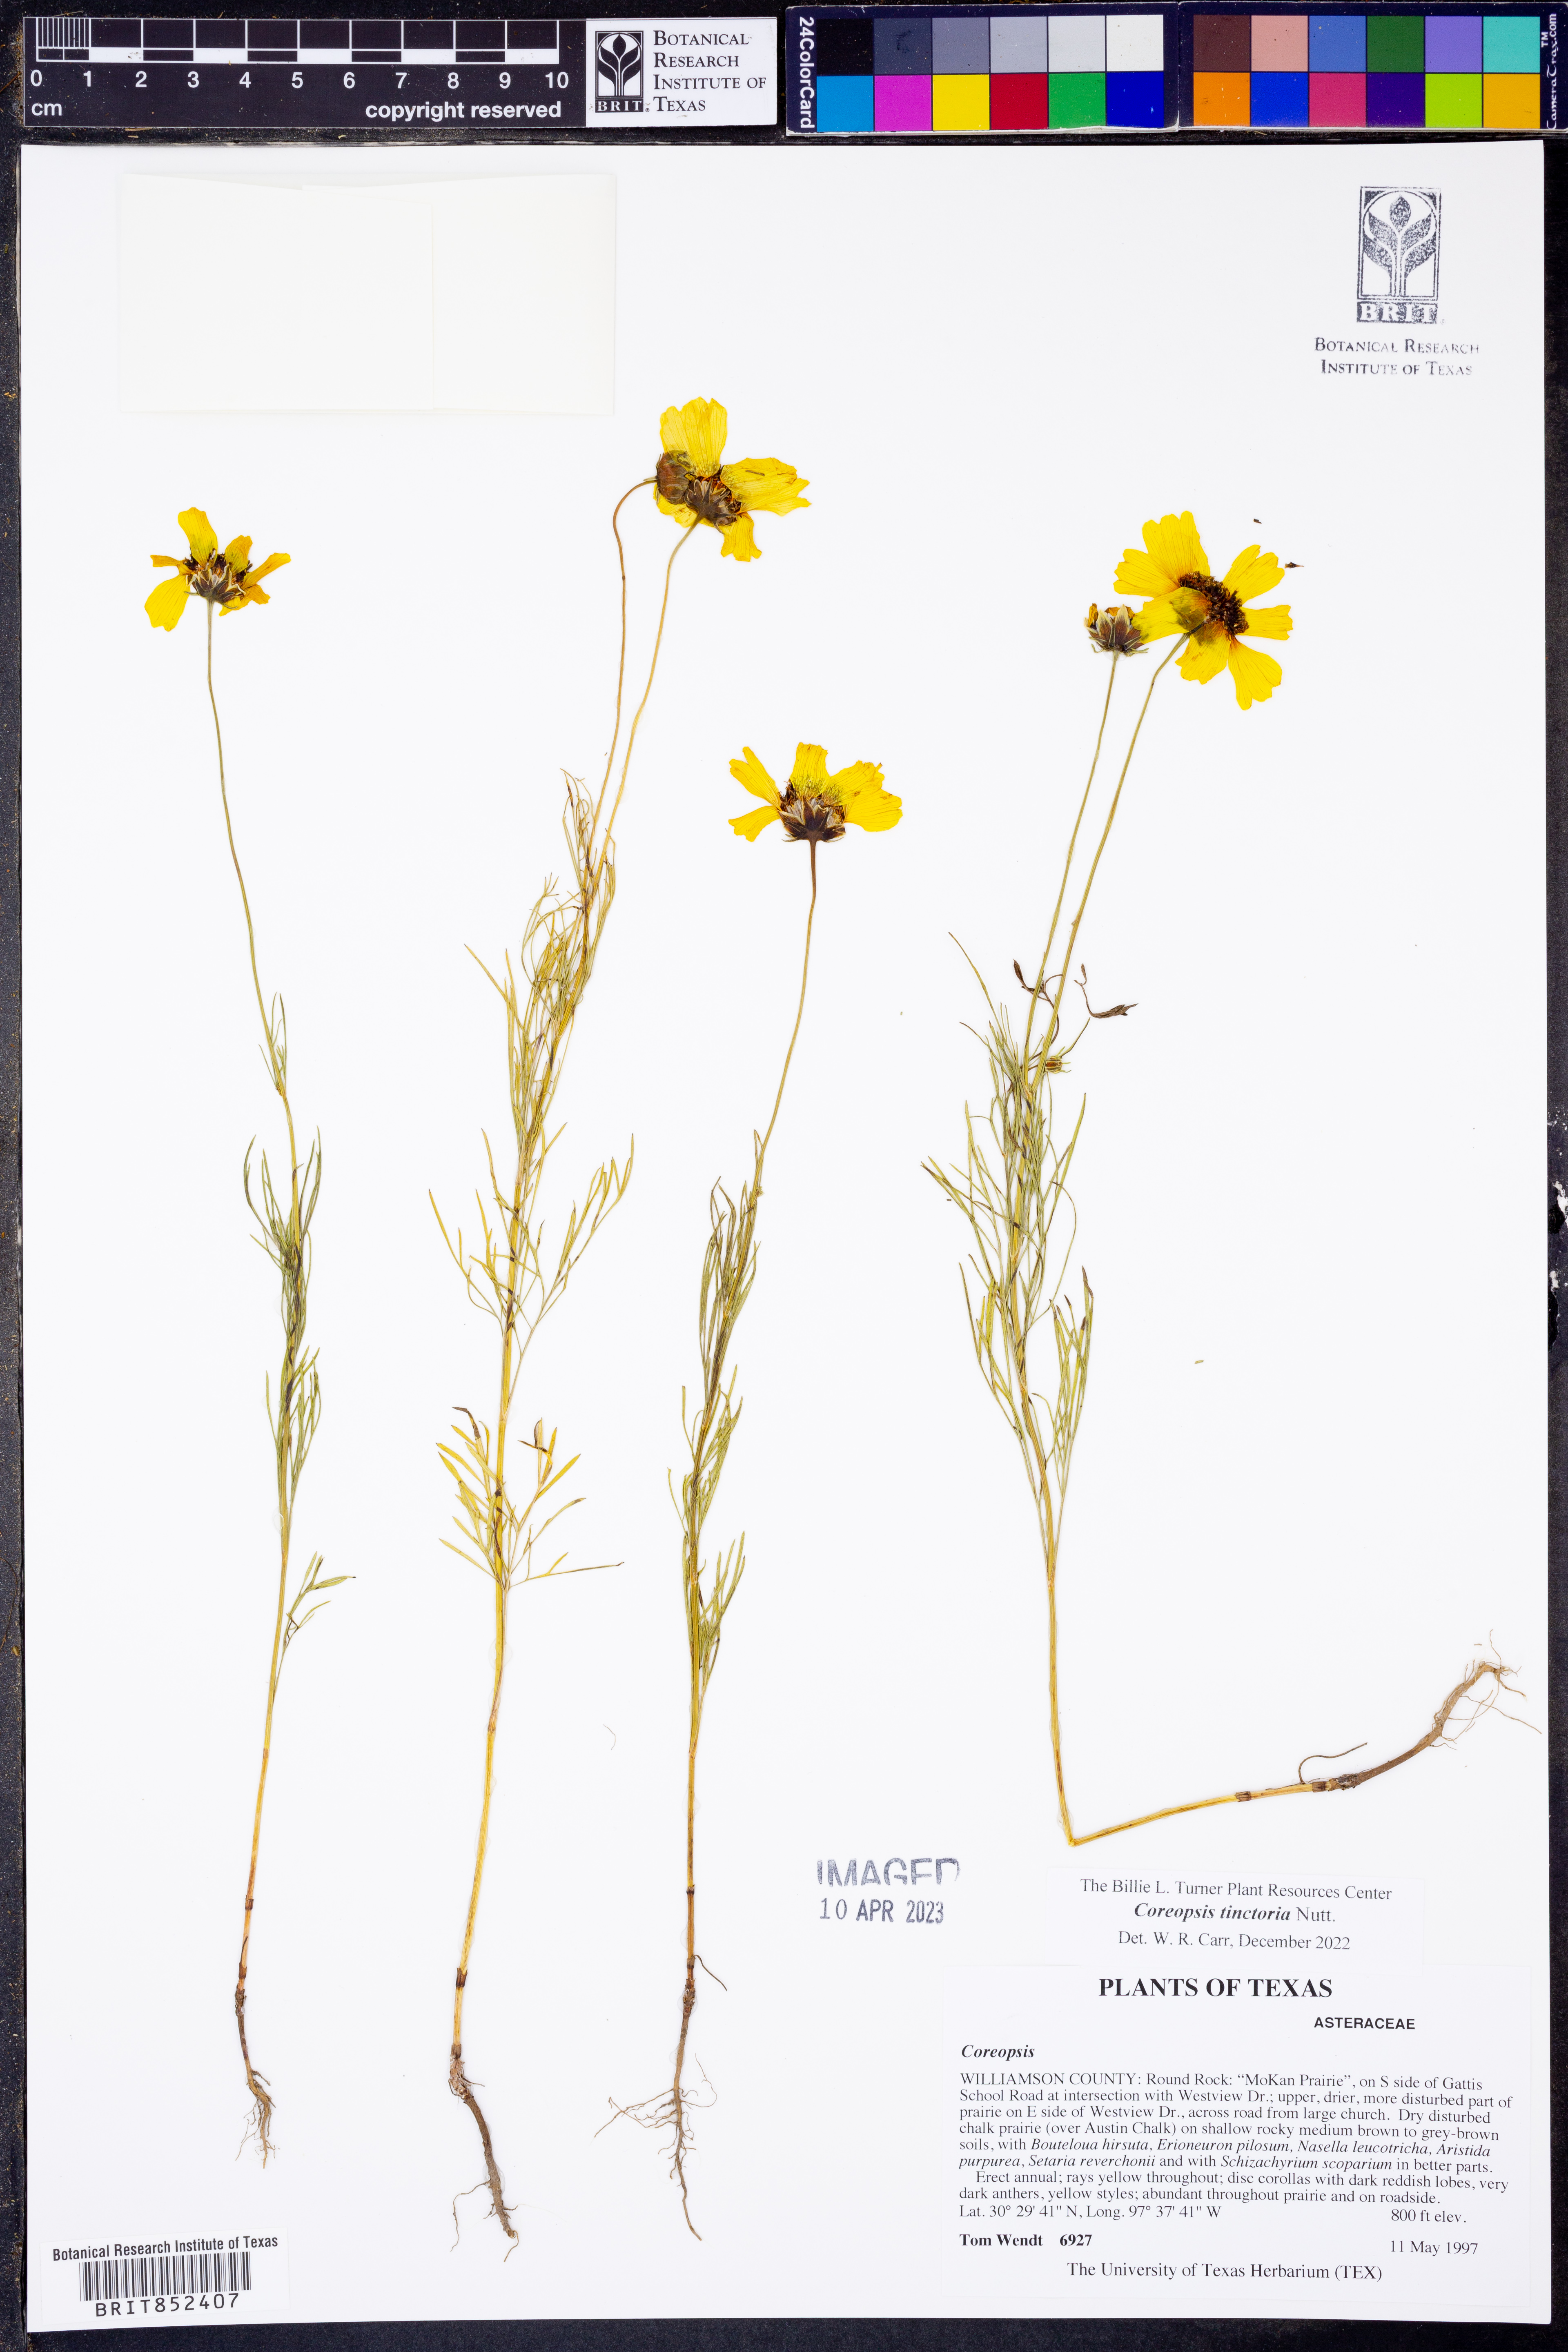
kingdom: Plantae
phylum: Tracheophyta
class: Magnoliopsida
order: Asterales
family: Asteraceae
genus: Coreopsis
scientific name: Coreopsis tinctoria
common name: Garden tickseed
